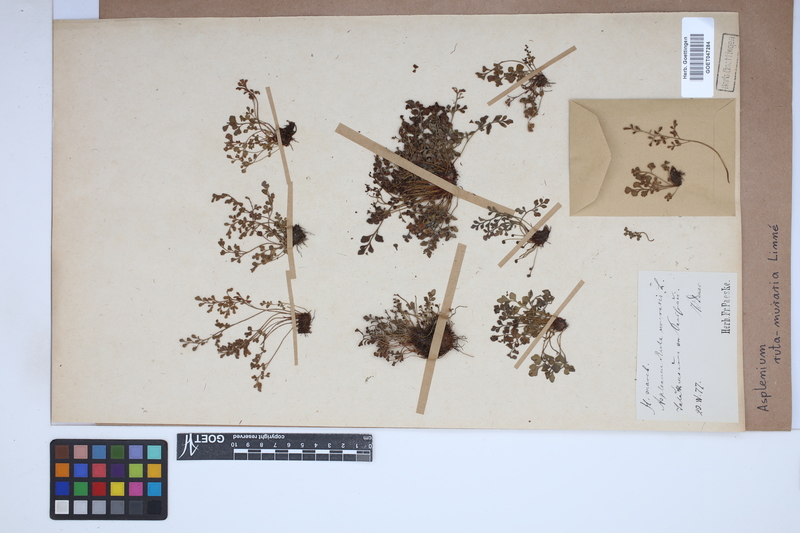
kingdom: Plantae
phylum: Tracheophyta
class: Polypodiopsida
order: Polypodiales
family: Aspleniaceae
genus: Asplenium
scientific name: Asplenium ruta-muraria
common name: Wall-rue
